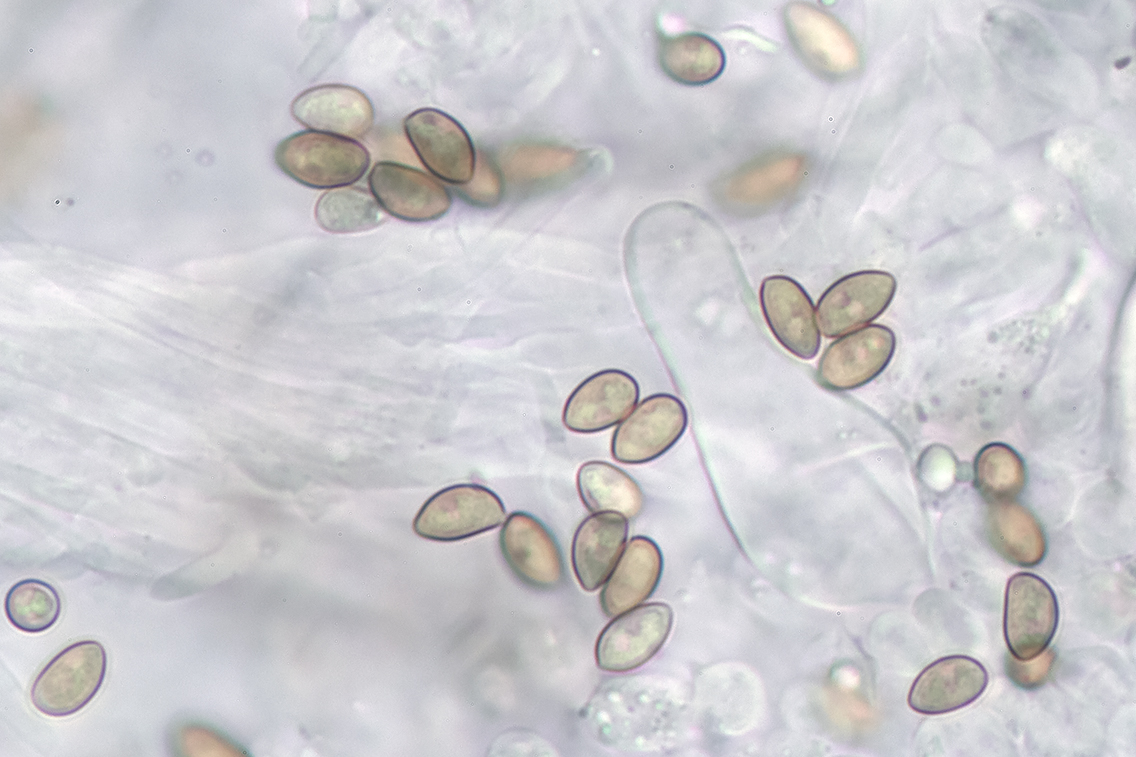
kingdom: Fungi
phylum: Basidiomycota
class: Agaricomycetes
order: Agaricales
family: Inocybaceae
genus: Inocybe
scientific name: Inocybe
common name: trævlhat
